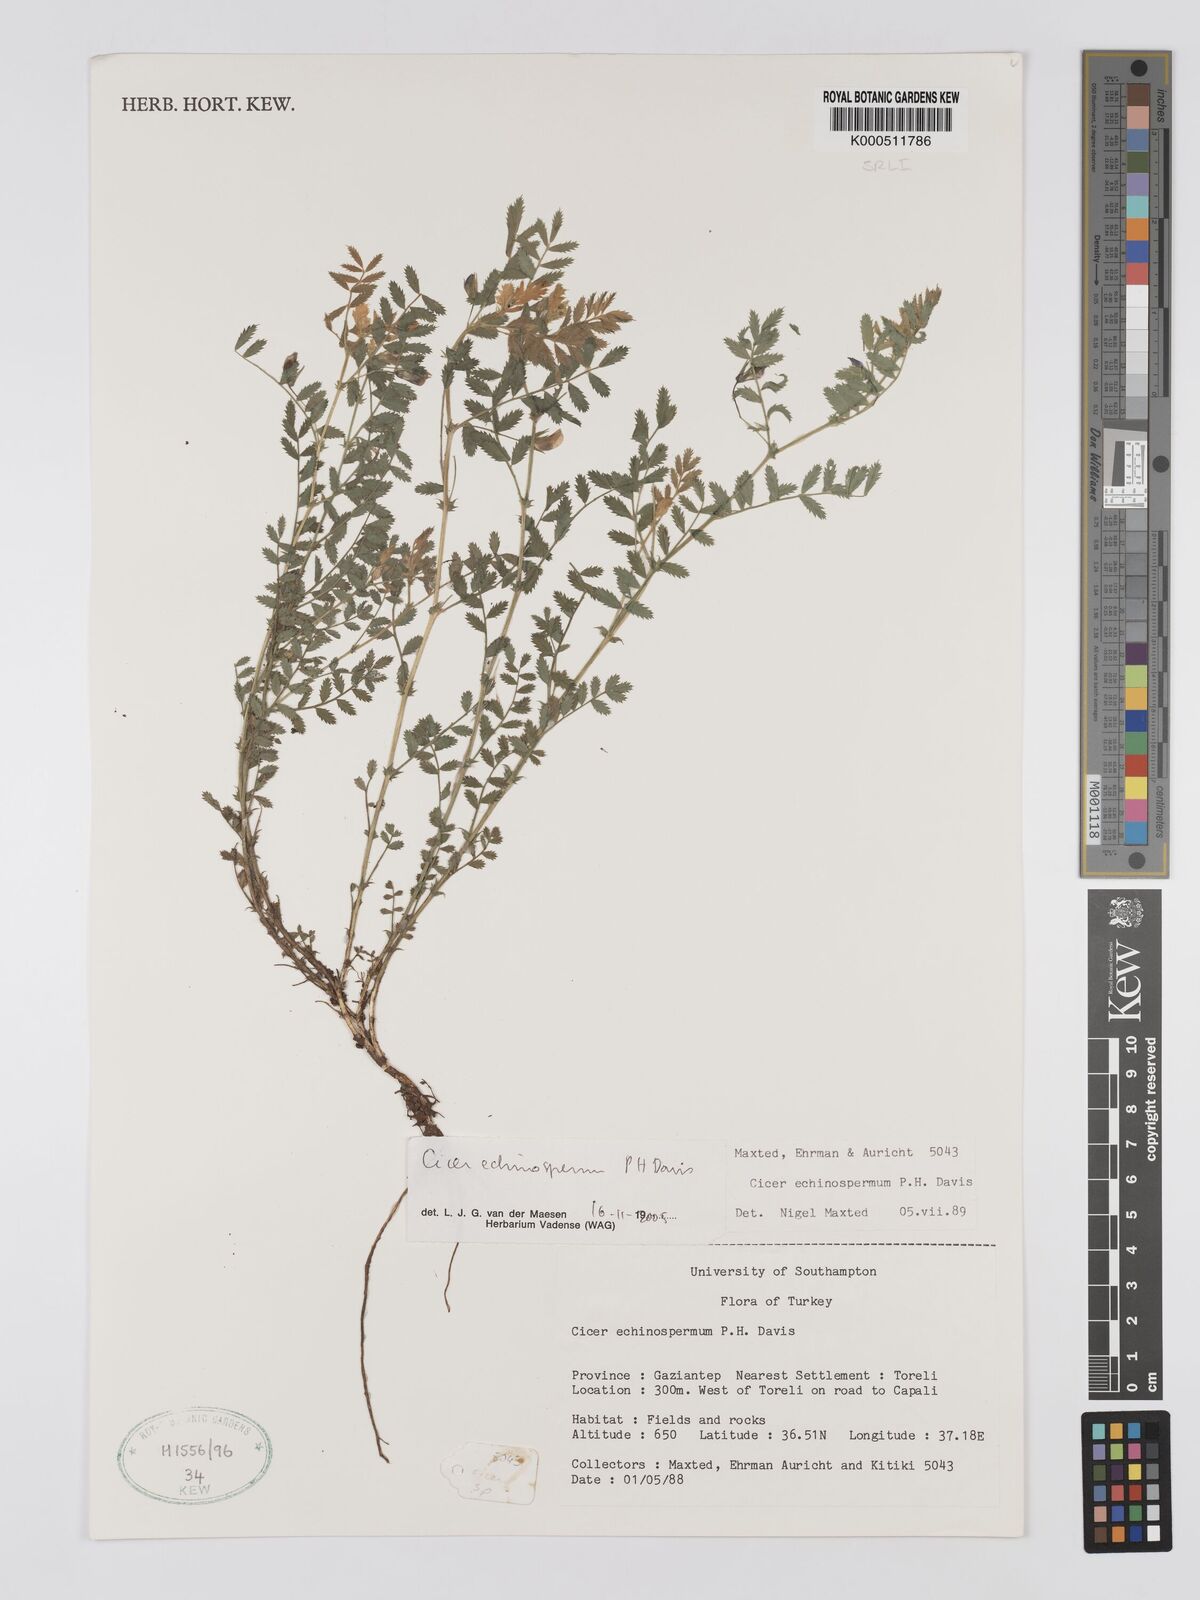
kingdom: Plantae
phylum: Tracheophyta
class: Magnoliopsida
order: Fabales
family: Fabaceae
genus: Cicer
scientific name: Cicer echinospermum
